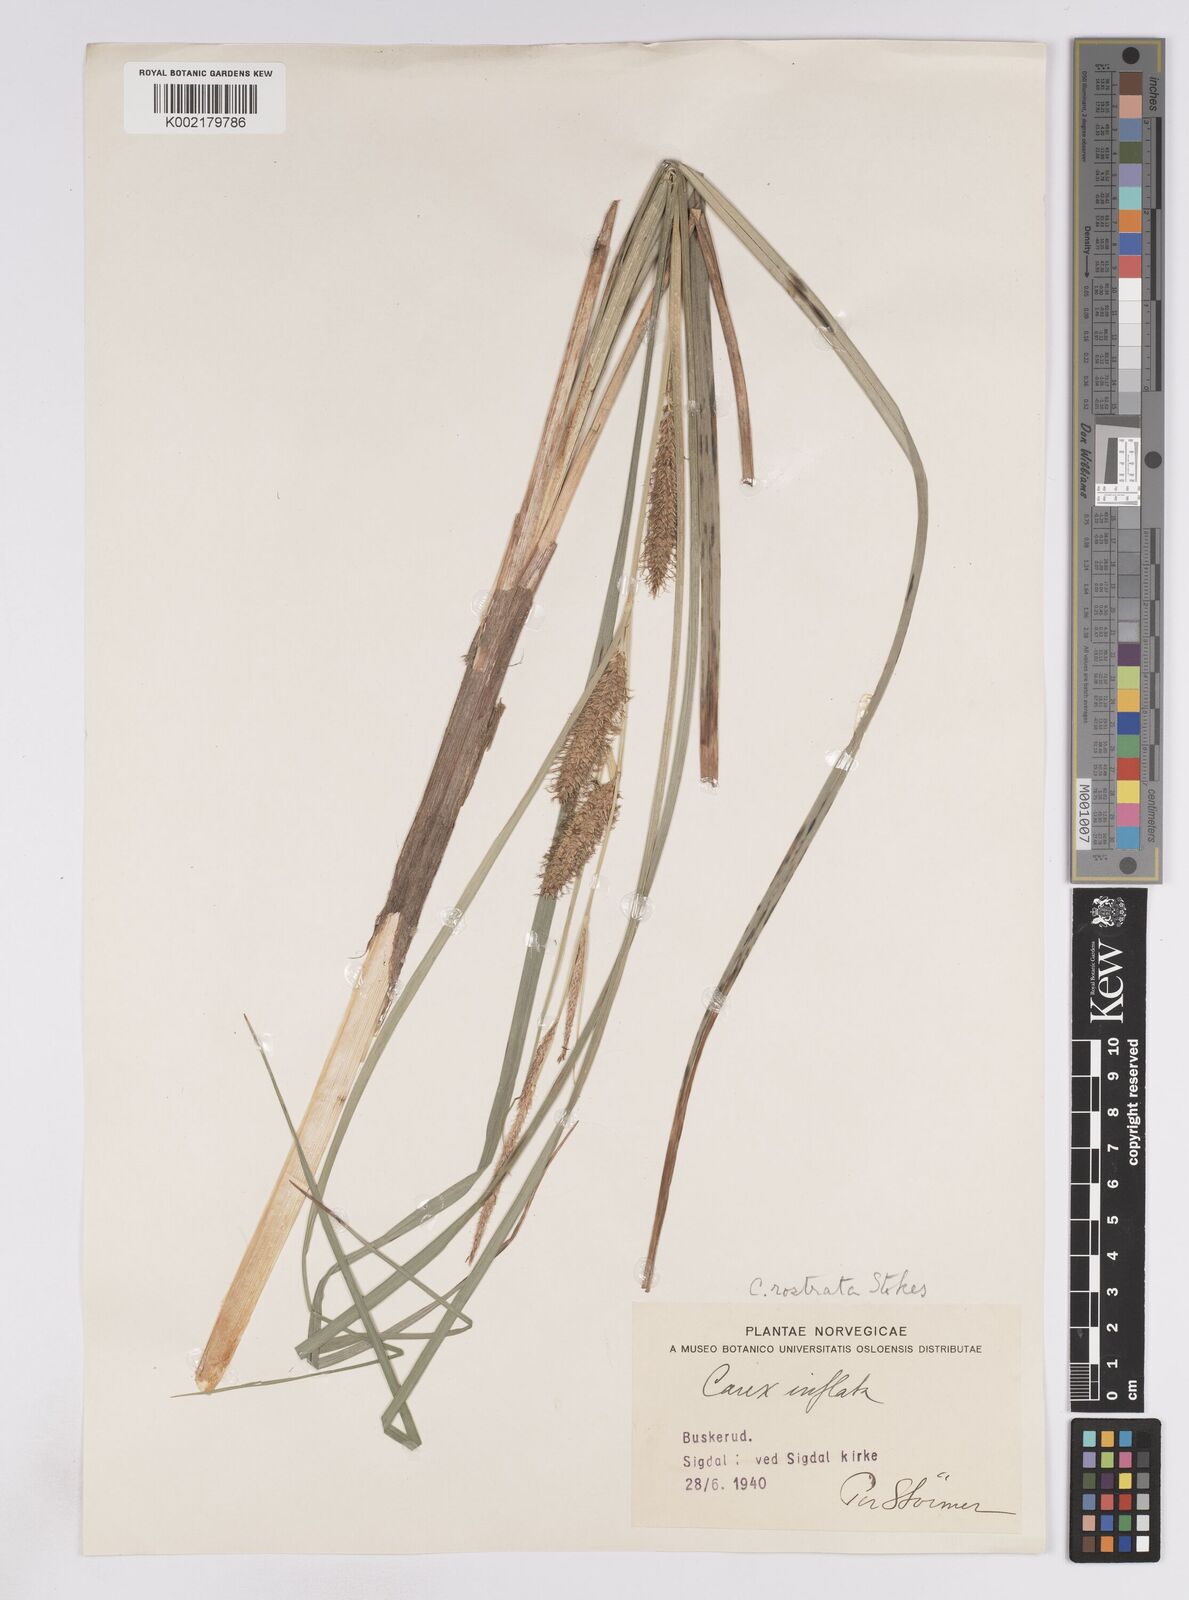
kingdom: Plantae
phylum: Tracheophyta
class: Liliopsida
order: Poales
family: Cyperaceae
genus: Carex
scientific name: Carex rostrata
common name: Bottle sedge
